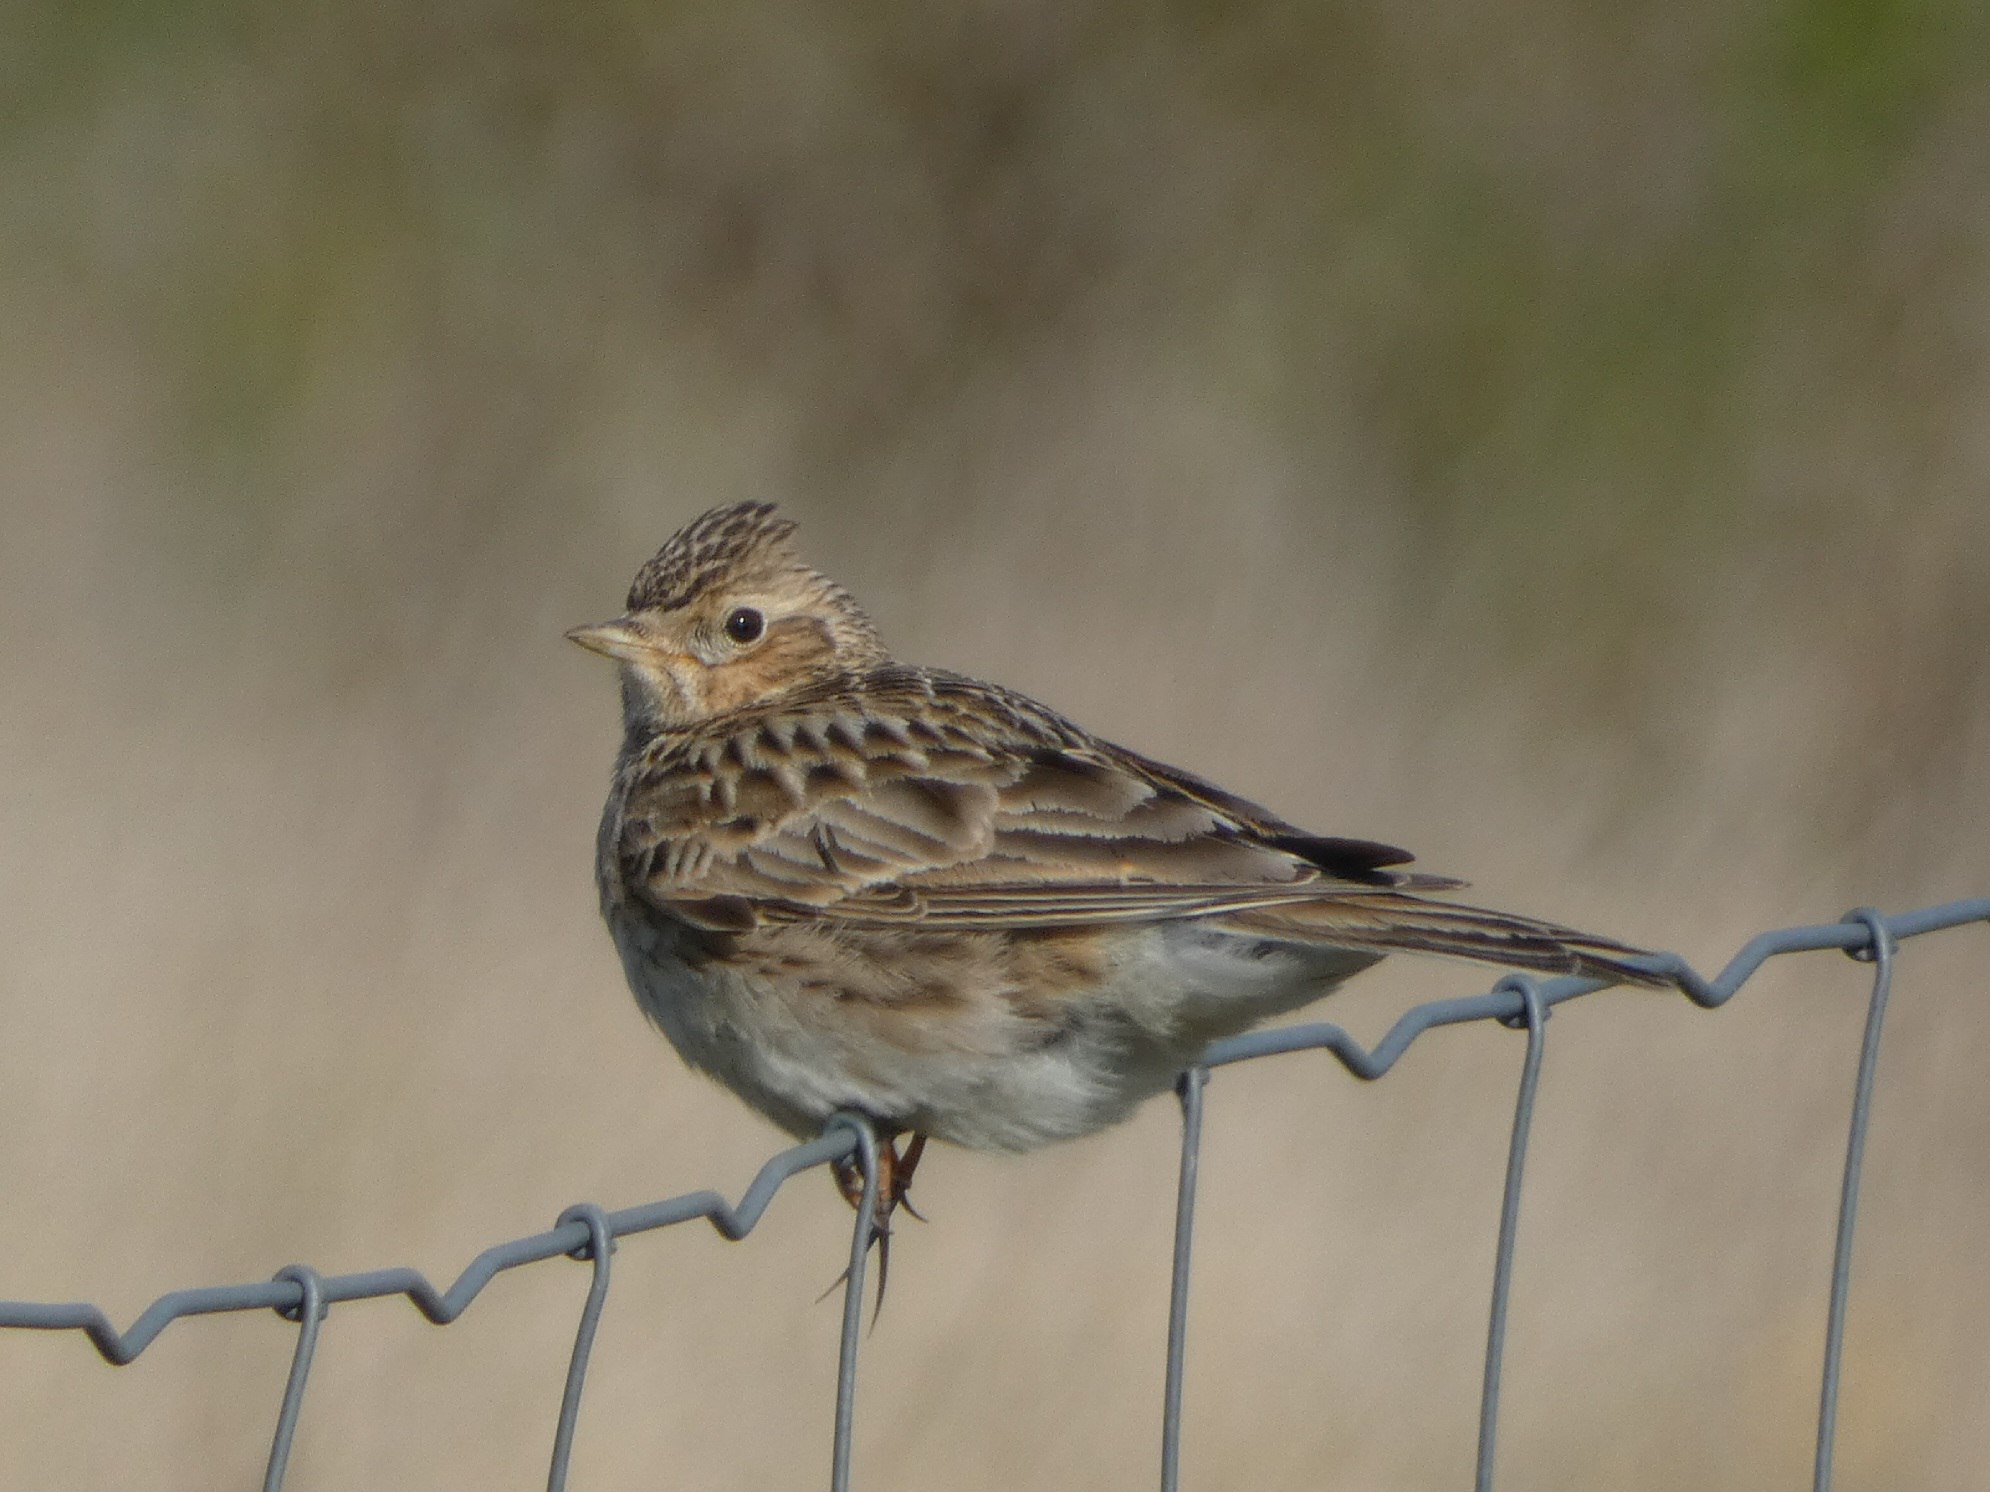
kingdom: Animalia
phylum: Chordata
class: Aves
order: Passeriformes
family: Alaudidae
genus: Alauda
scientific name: Alauda arvensis
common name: Sanglærke
